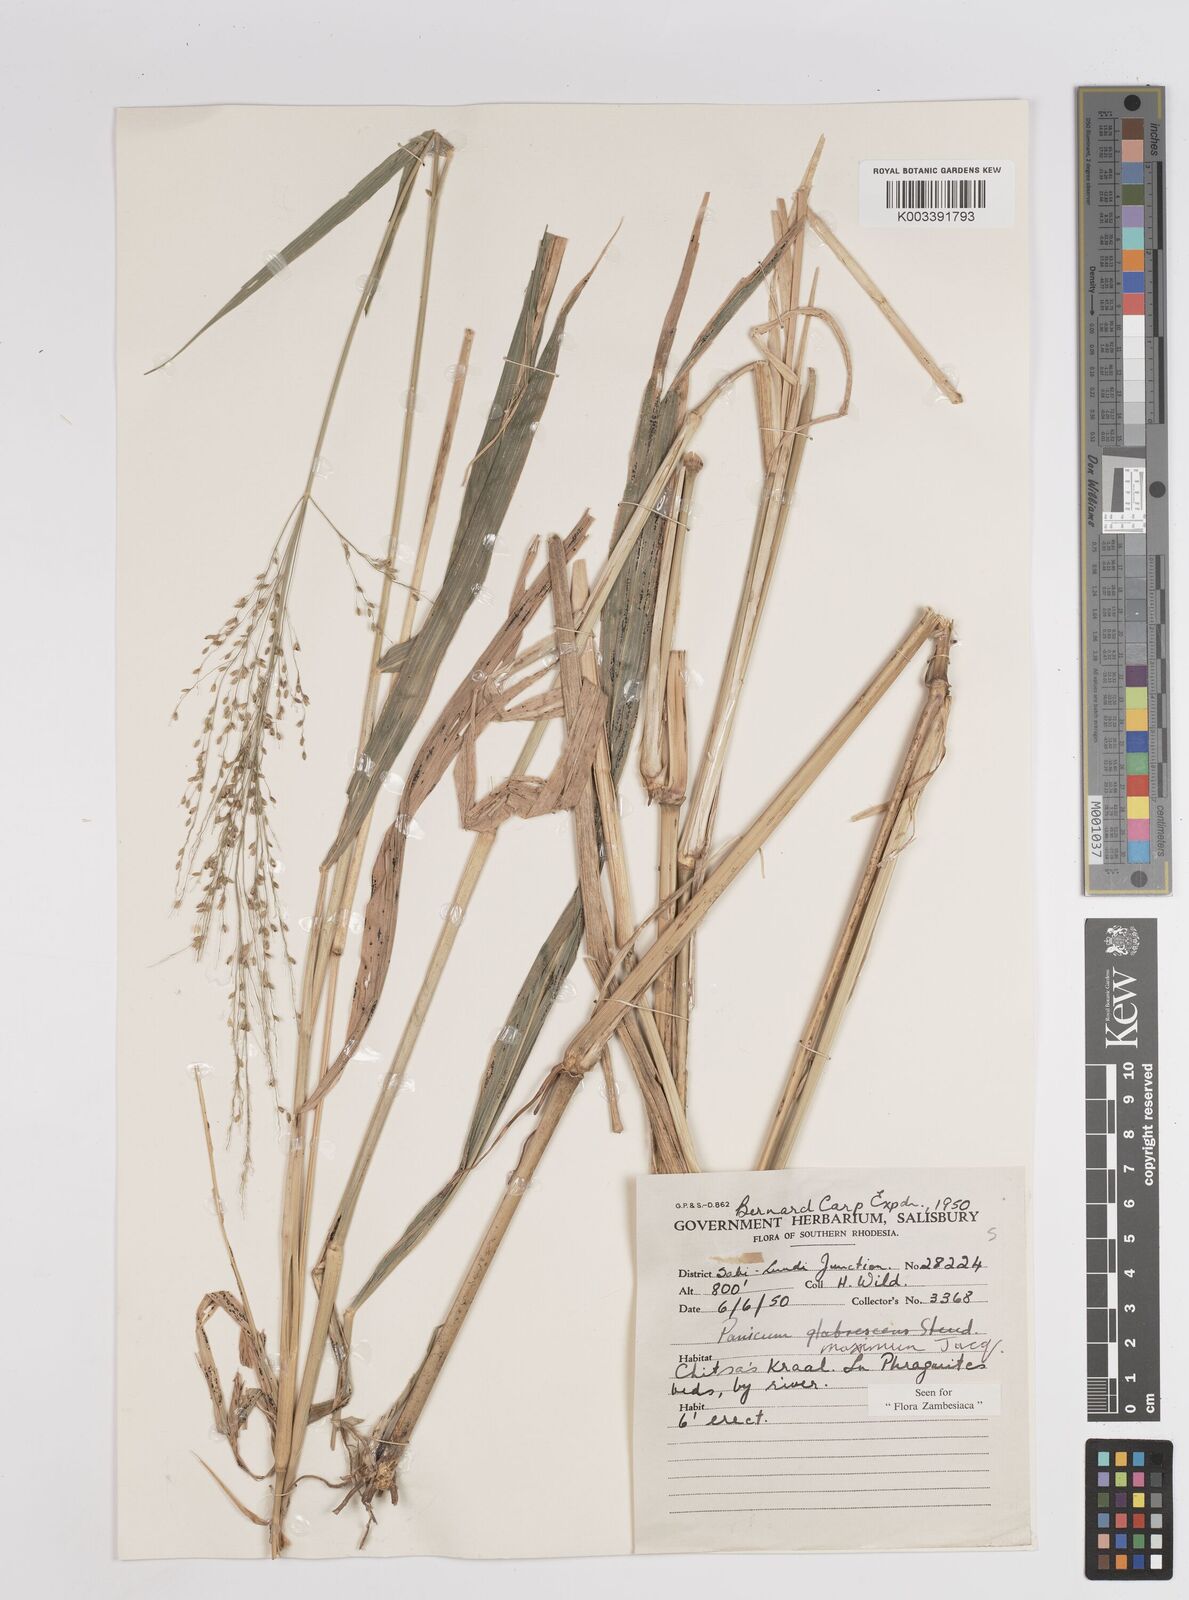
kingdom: Plantae
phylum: Tracheophyta
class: Liliopsida
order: Poales
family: Poaceae
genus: Megathyrsus
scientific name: Megathyrsus maximus
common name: Guineagrass
